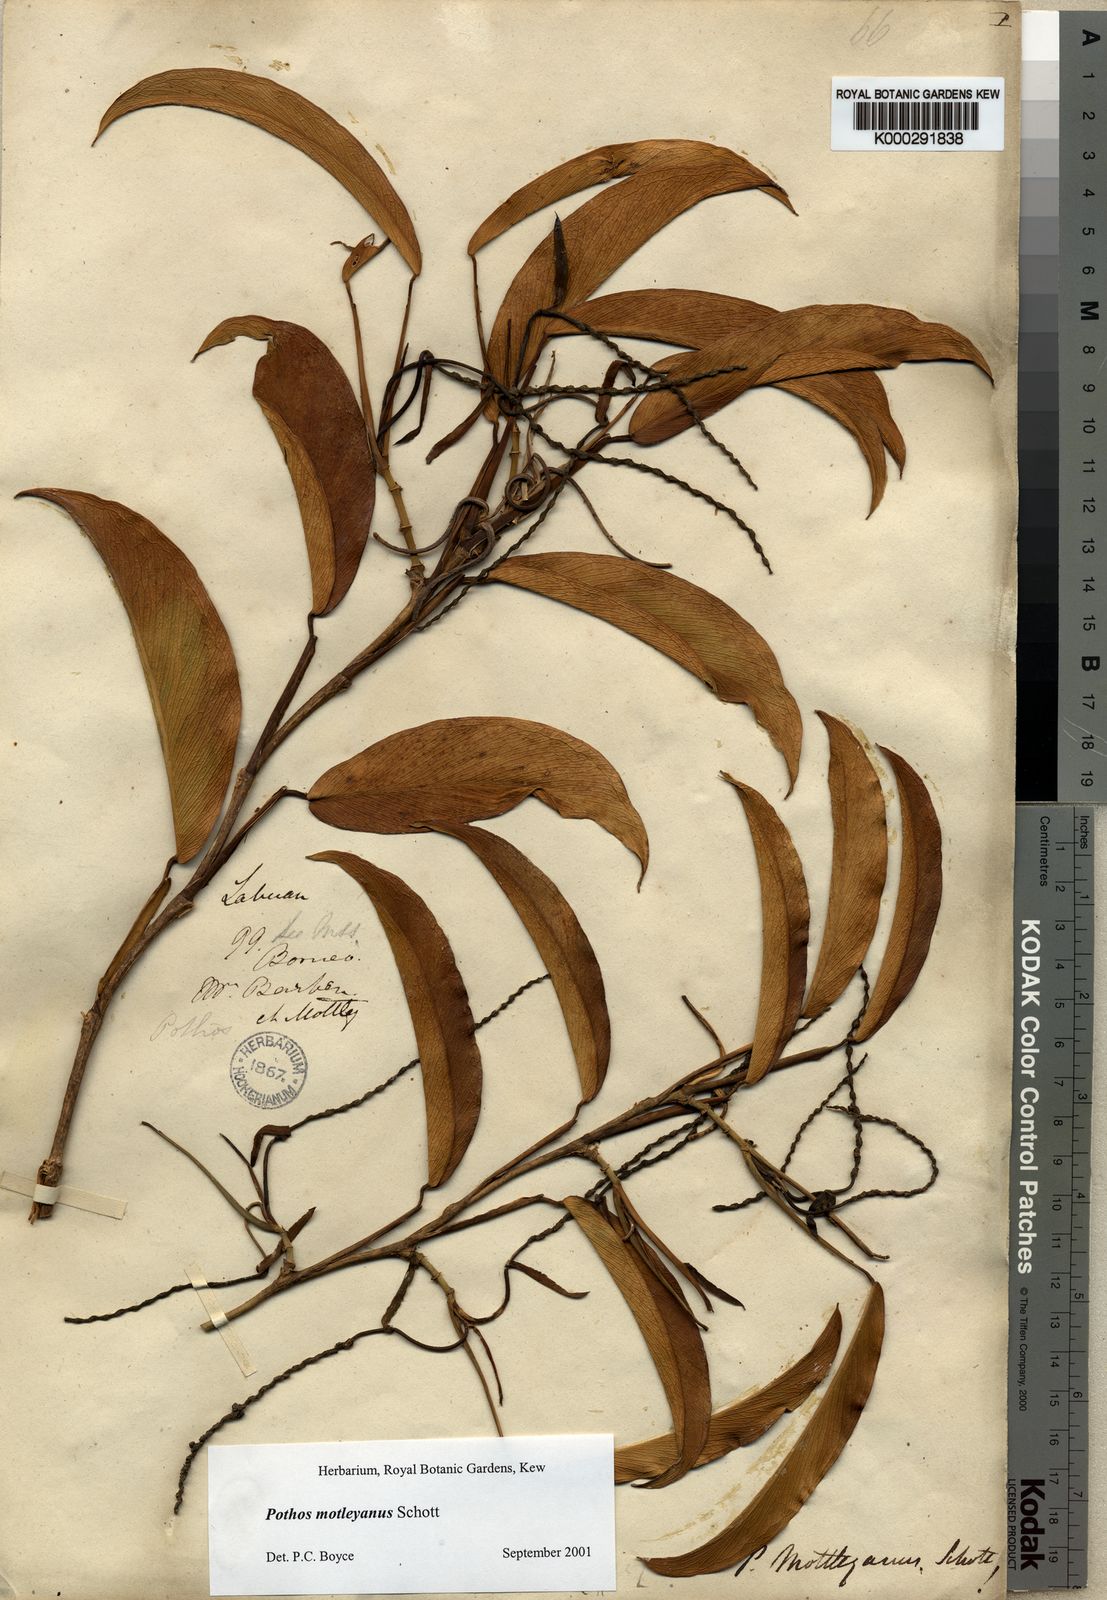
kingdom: Plantae
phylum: Tracheophyta
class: Liliopsida
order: Alismatales
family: Araceae
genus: Pothos
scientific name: Pothos motleyanus
